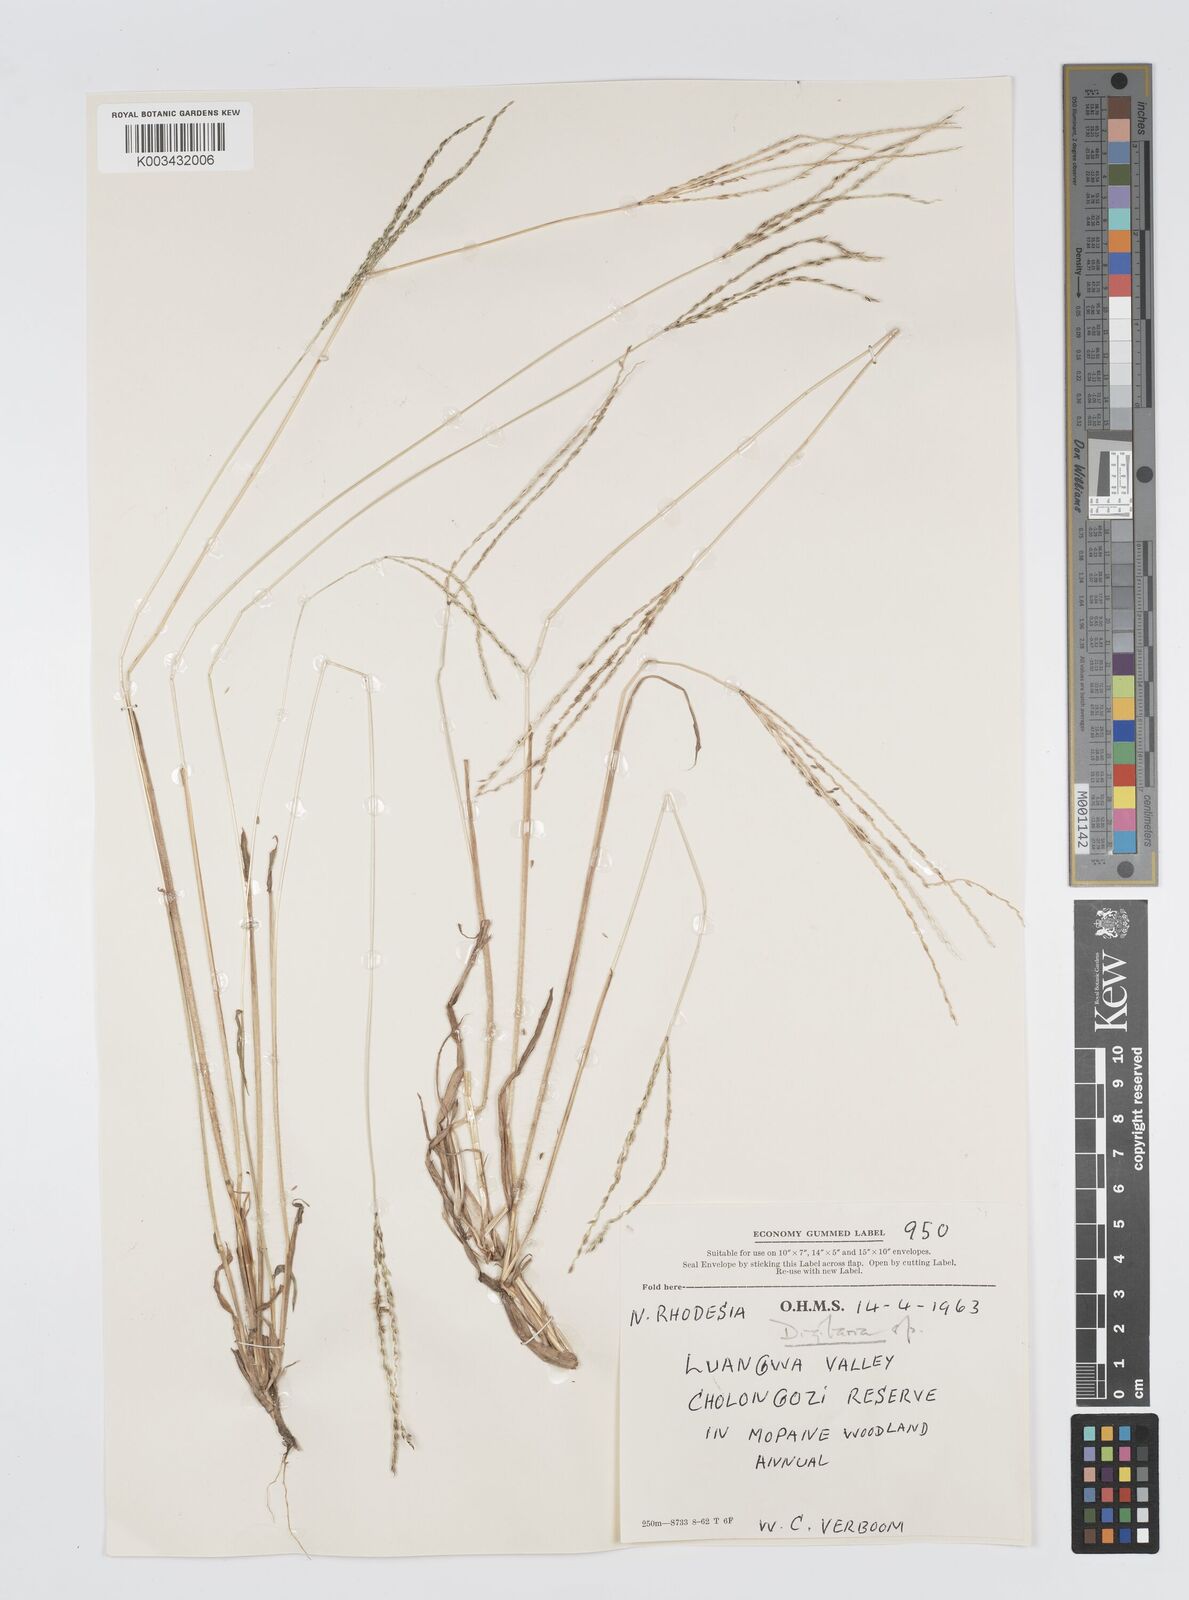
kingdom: Plantae
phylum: Tracheophyta
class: Liliopsida
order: Poales
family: Poaceae
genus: Digitaria
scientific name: Digitaria milanjiana
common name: Madagascar crabgrass
